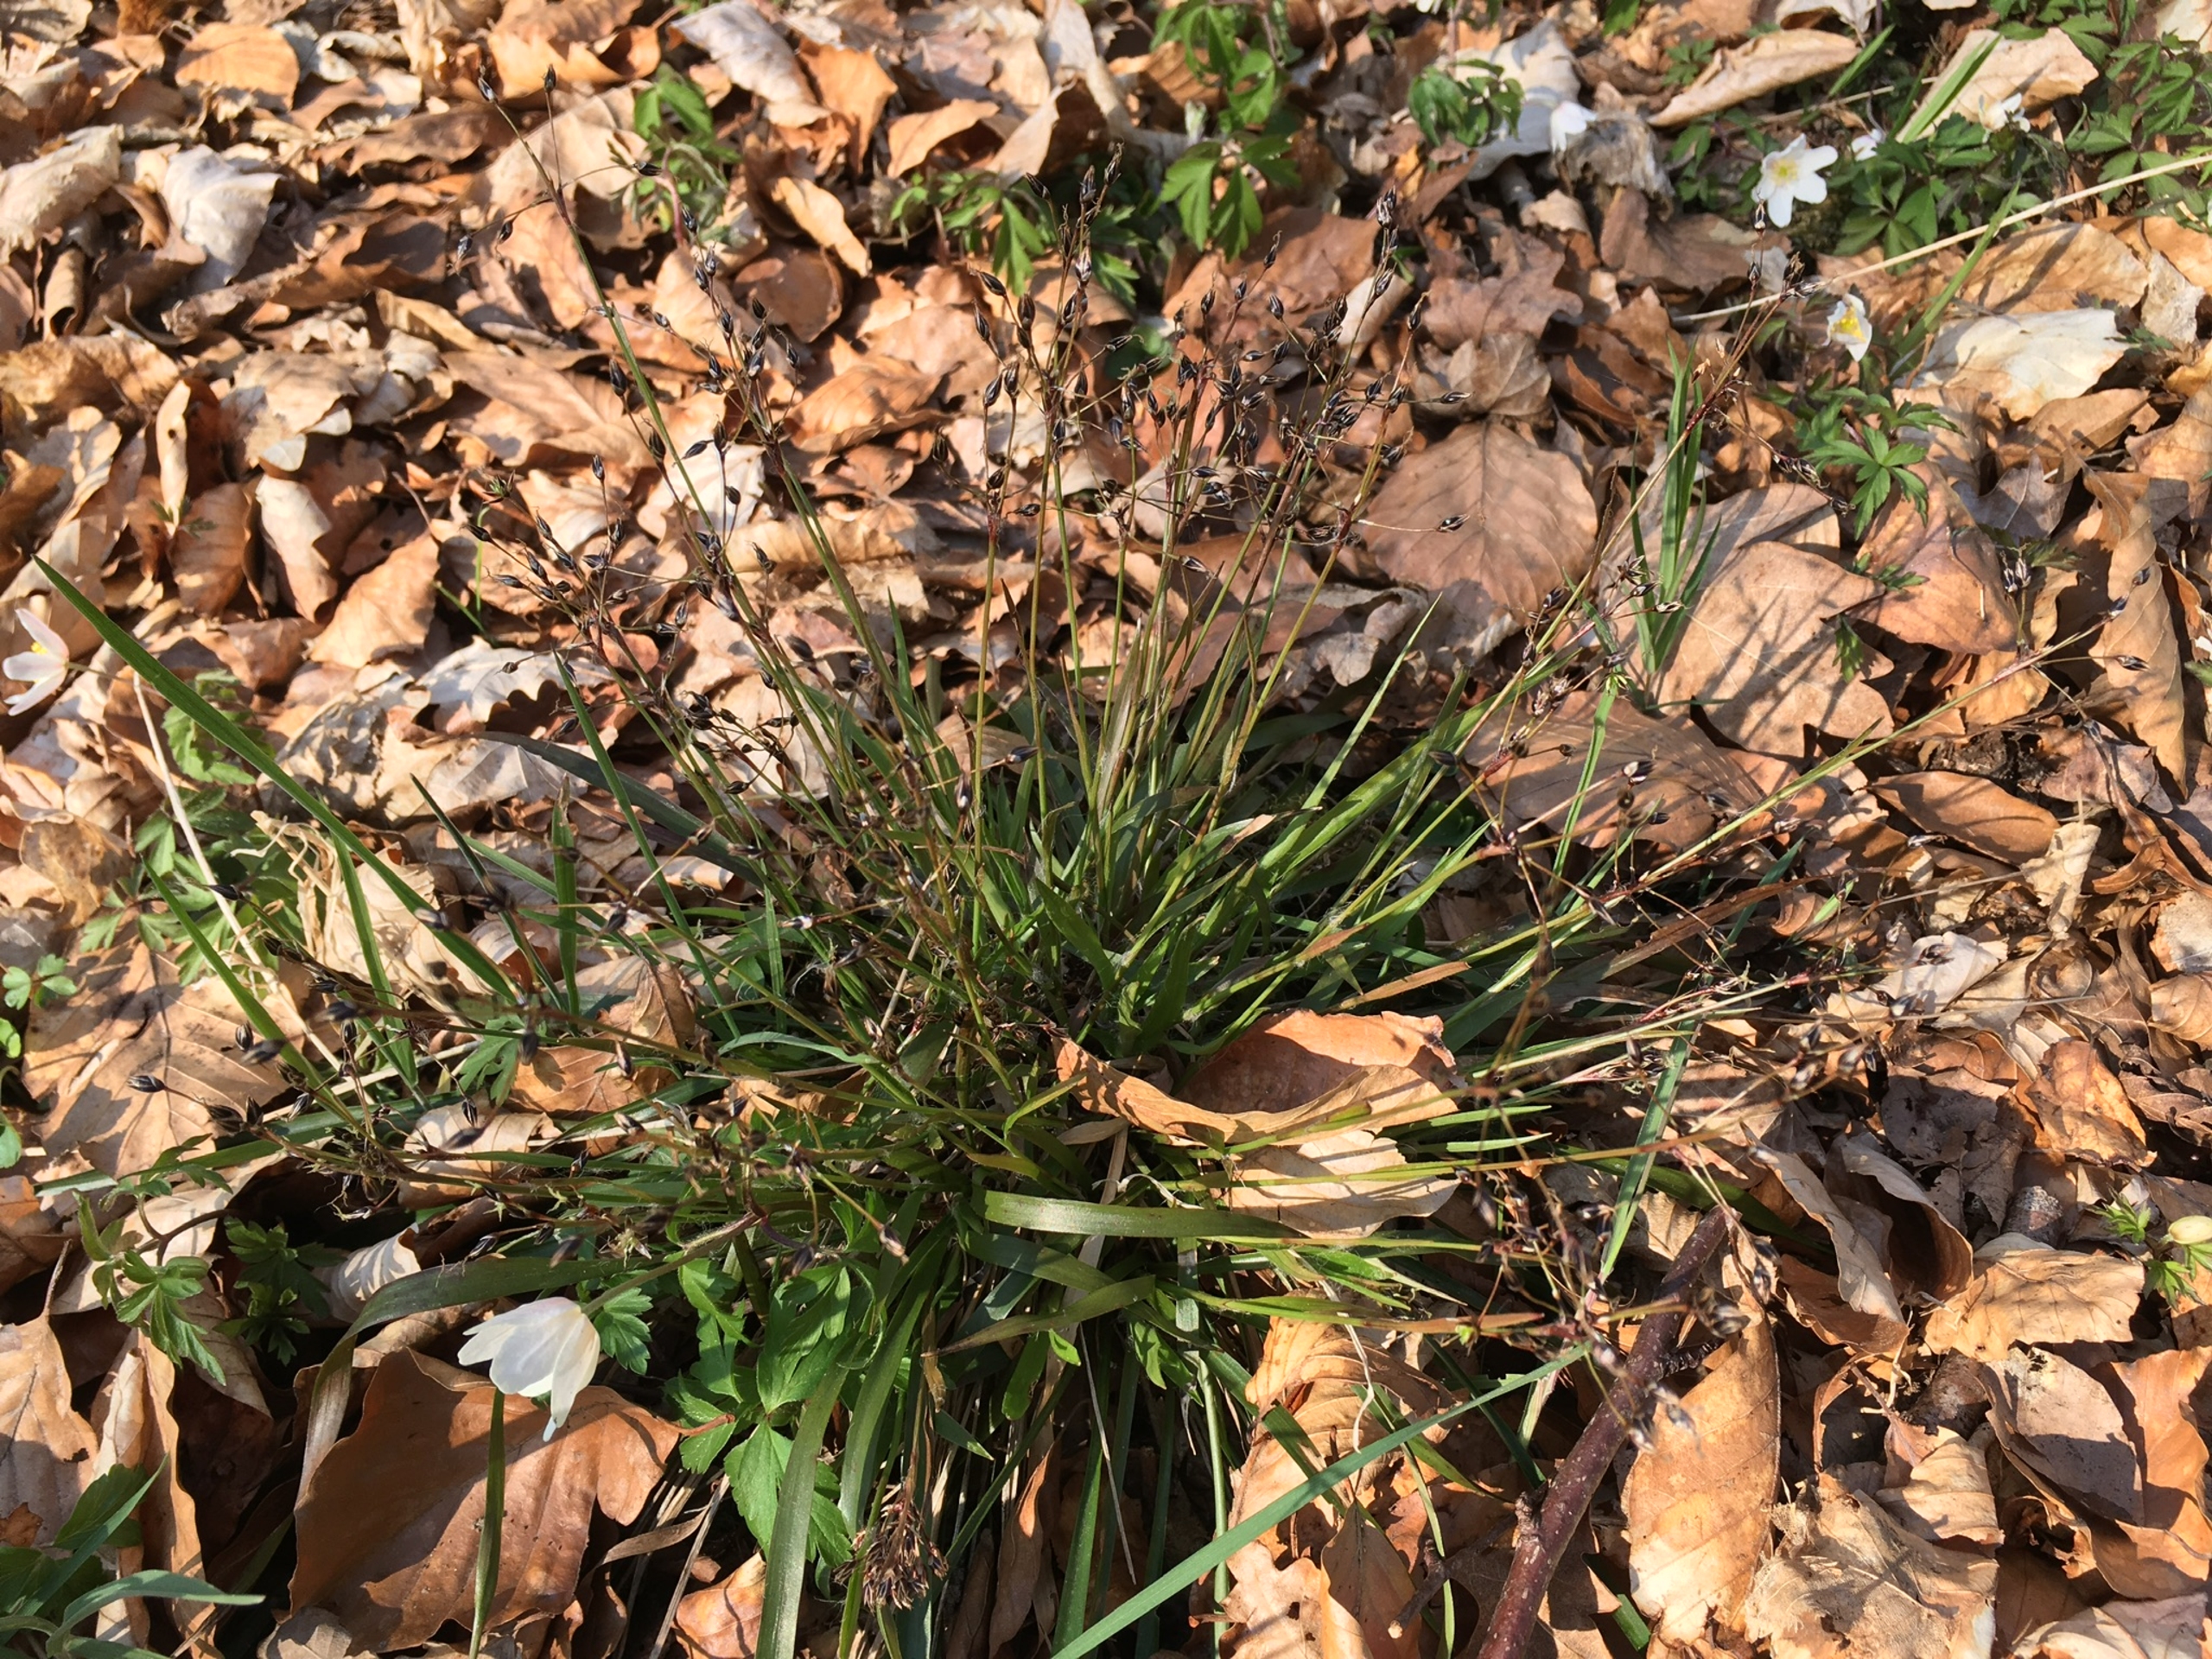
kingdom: Plantae
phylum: Tracheophyta
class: Liliopsida
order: Poales
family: Juncaceae
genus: Luzula
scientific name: Luzula pilosa
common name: Håret frytle
